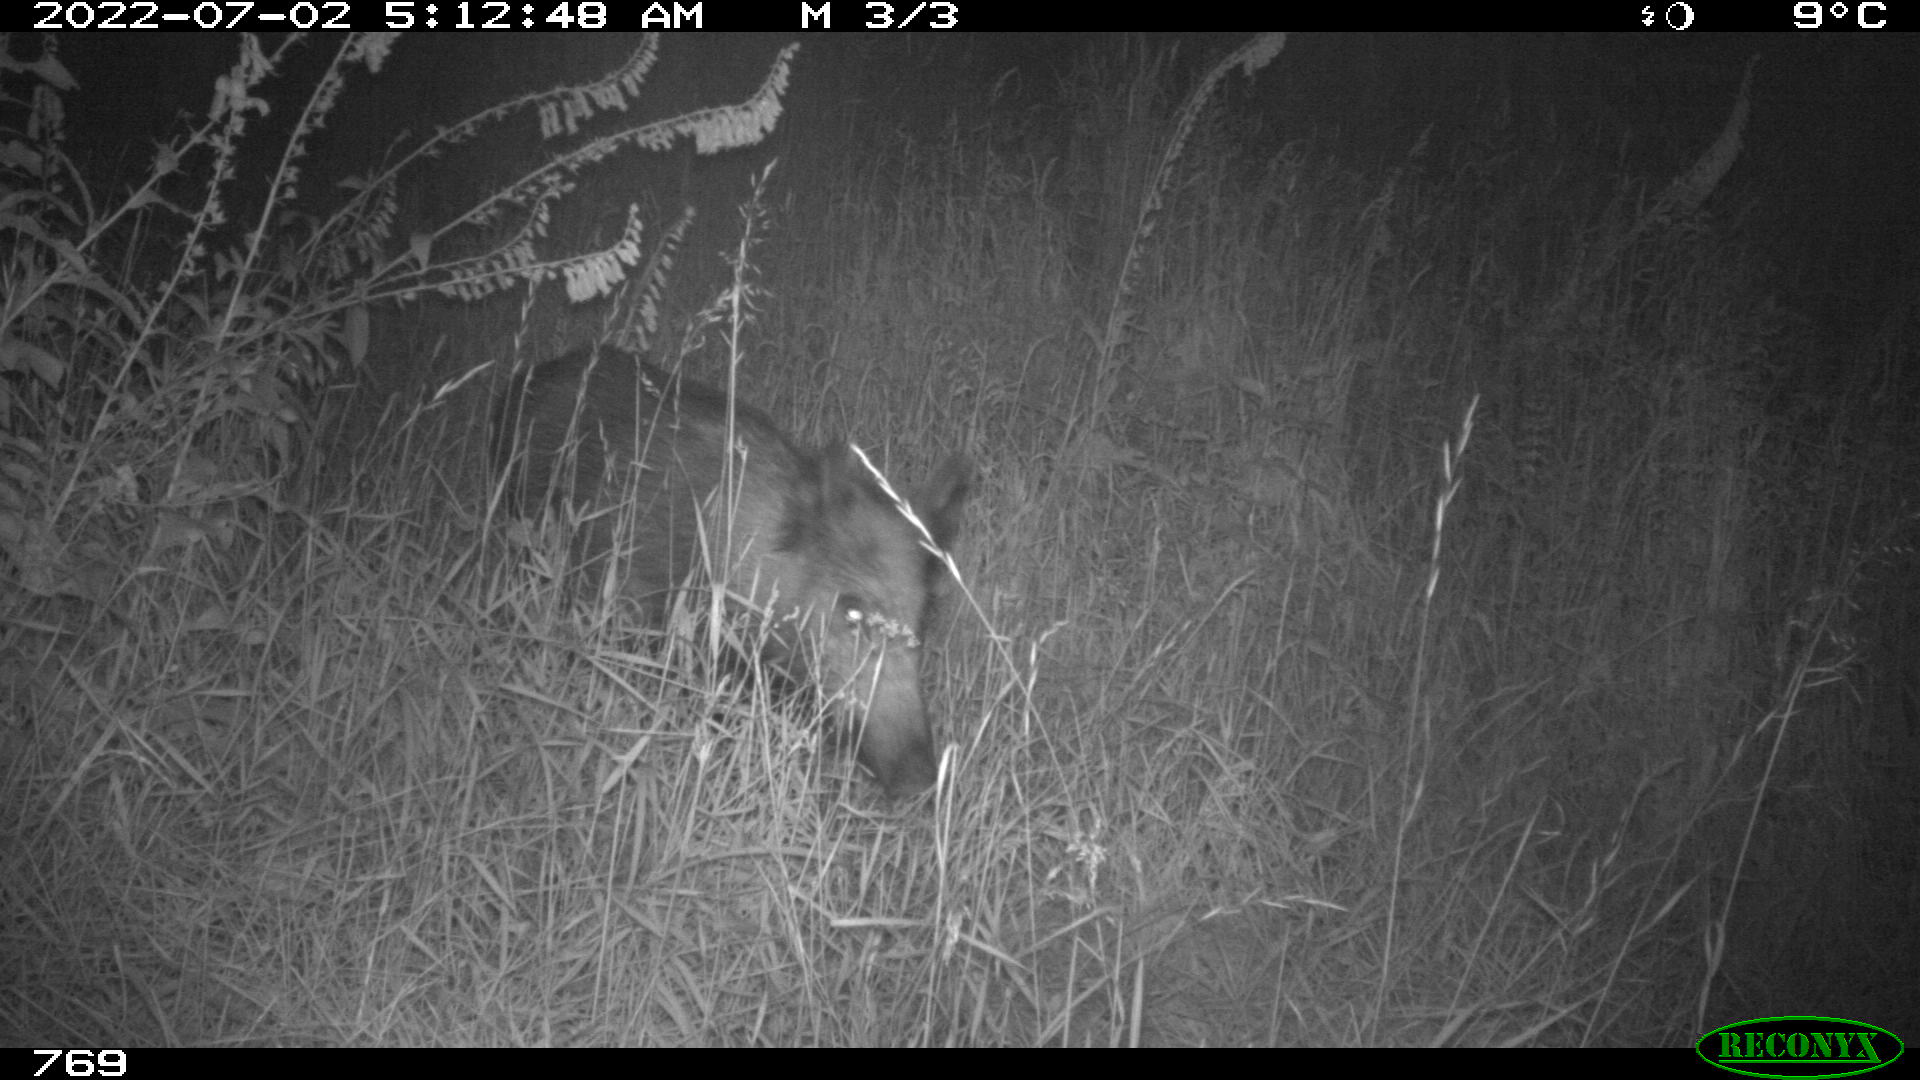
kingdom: Animalia
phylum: Chordata
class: Mammalia
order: Artiodactyla
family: Suidae
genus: Sus
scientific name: Sus scrofa
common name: Wild boar
